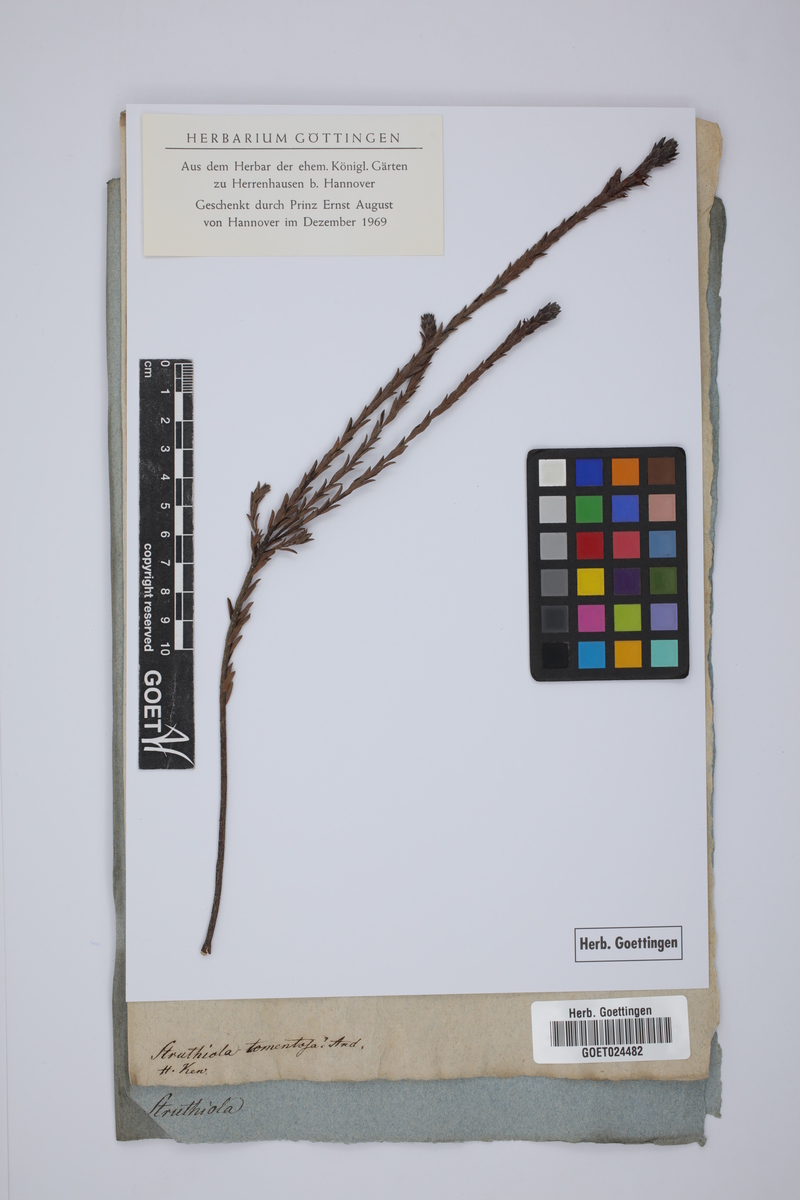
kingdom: Plantae
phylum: Tracheophyta
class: Magnoliopsida
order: Malvales
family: Thymelaeaceae
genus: Struthiola
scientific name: Struthiola tomentosa
